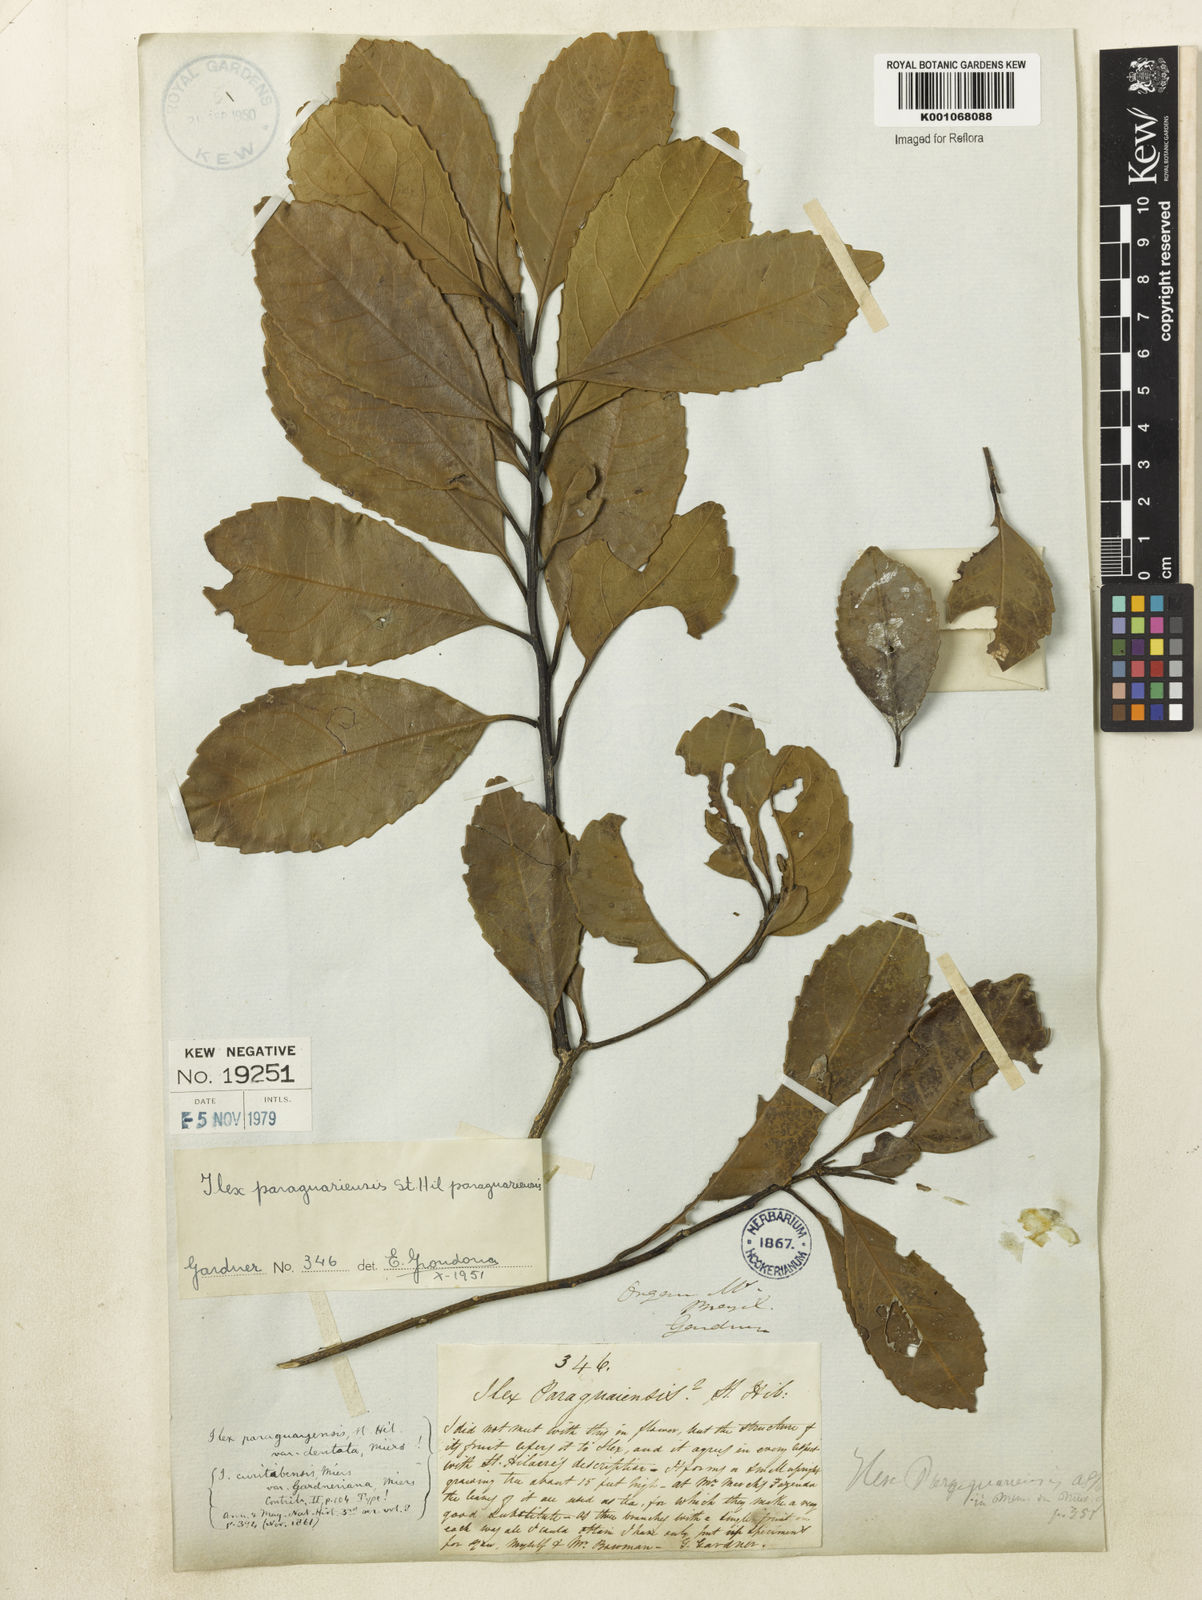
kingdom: Plantae
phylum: Tracheophyta
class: Magnoliopsida
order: Aquifoliales
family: Aquifoliaceae
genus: Ilex
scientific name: Ilex paraguariensis
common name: Paraguay tea
